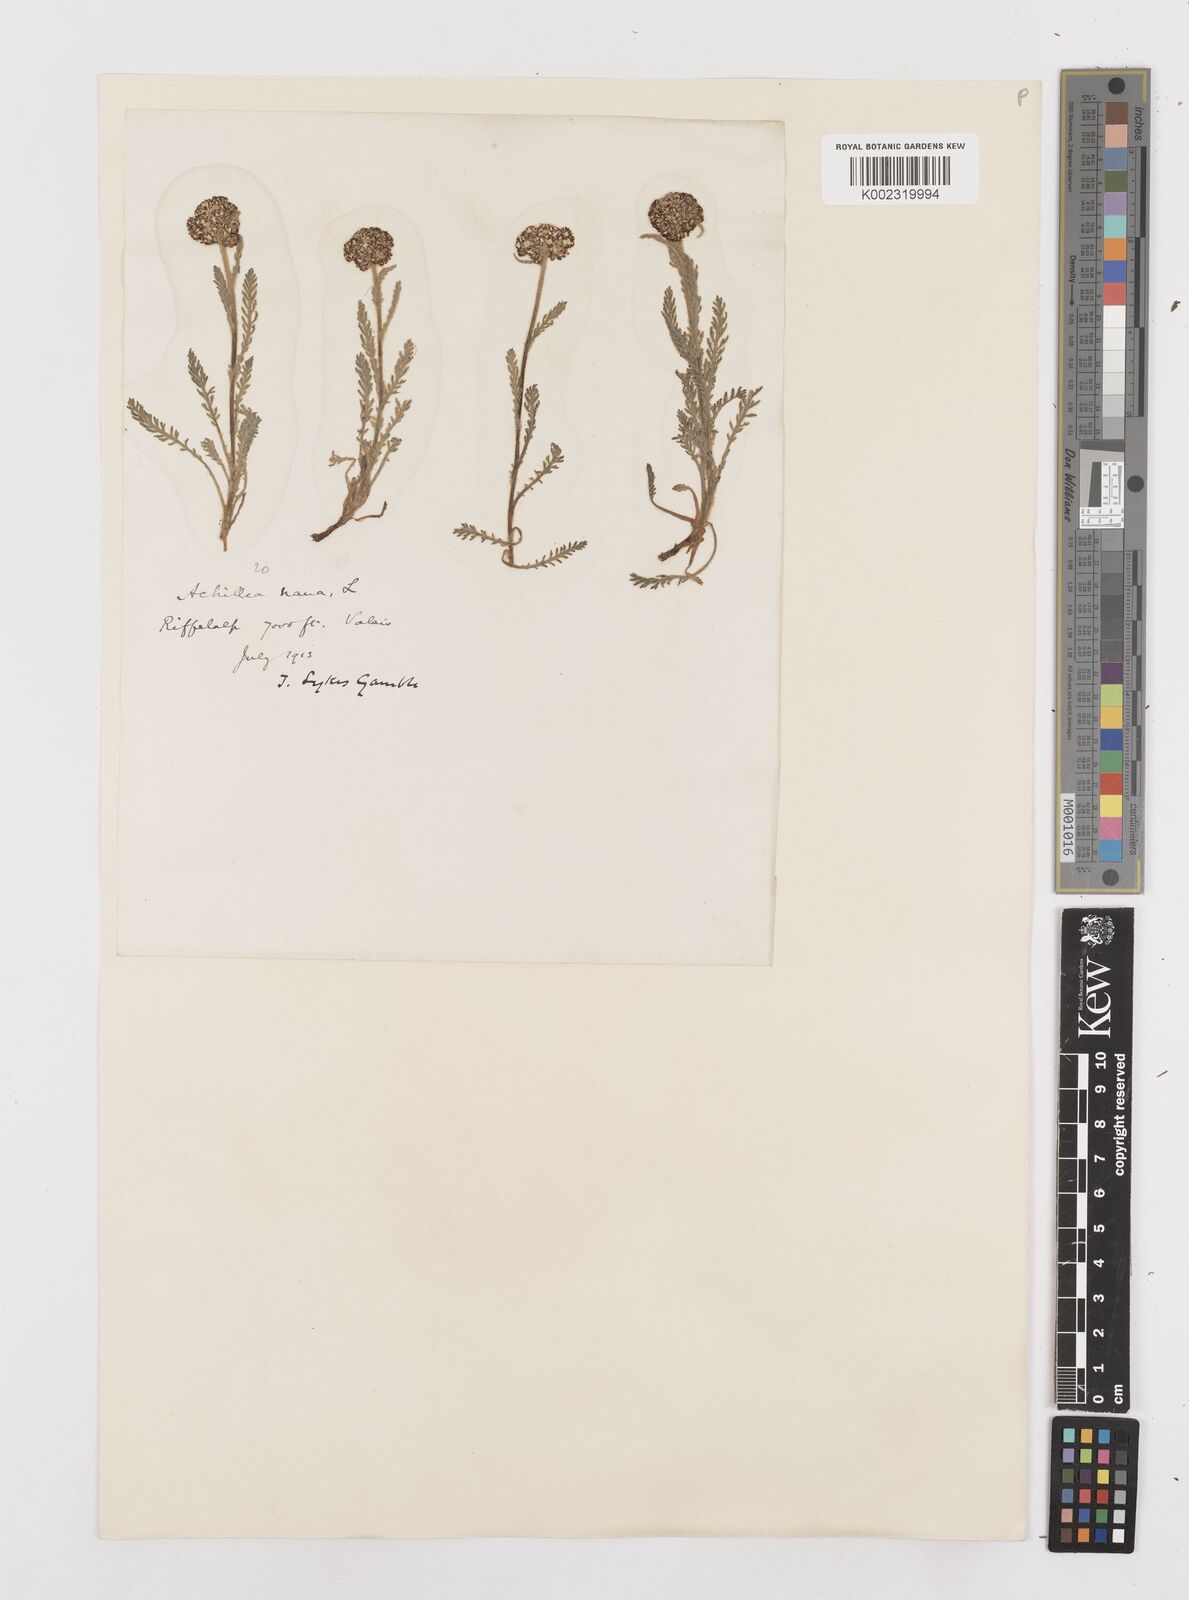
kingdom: Plantae
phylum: Tracheophyta
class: Magnoliopsida
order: Asterales
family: Asteraceae
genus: Achillea
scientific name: Achillea nana
